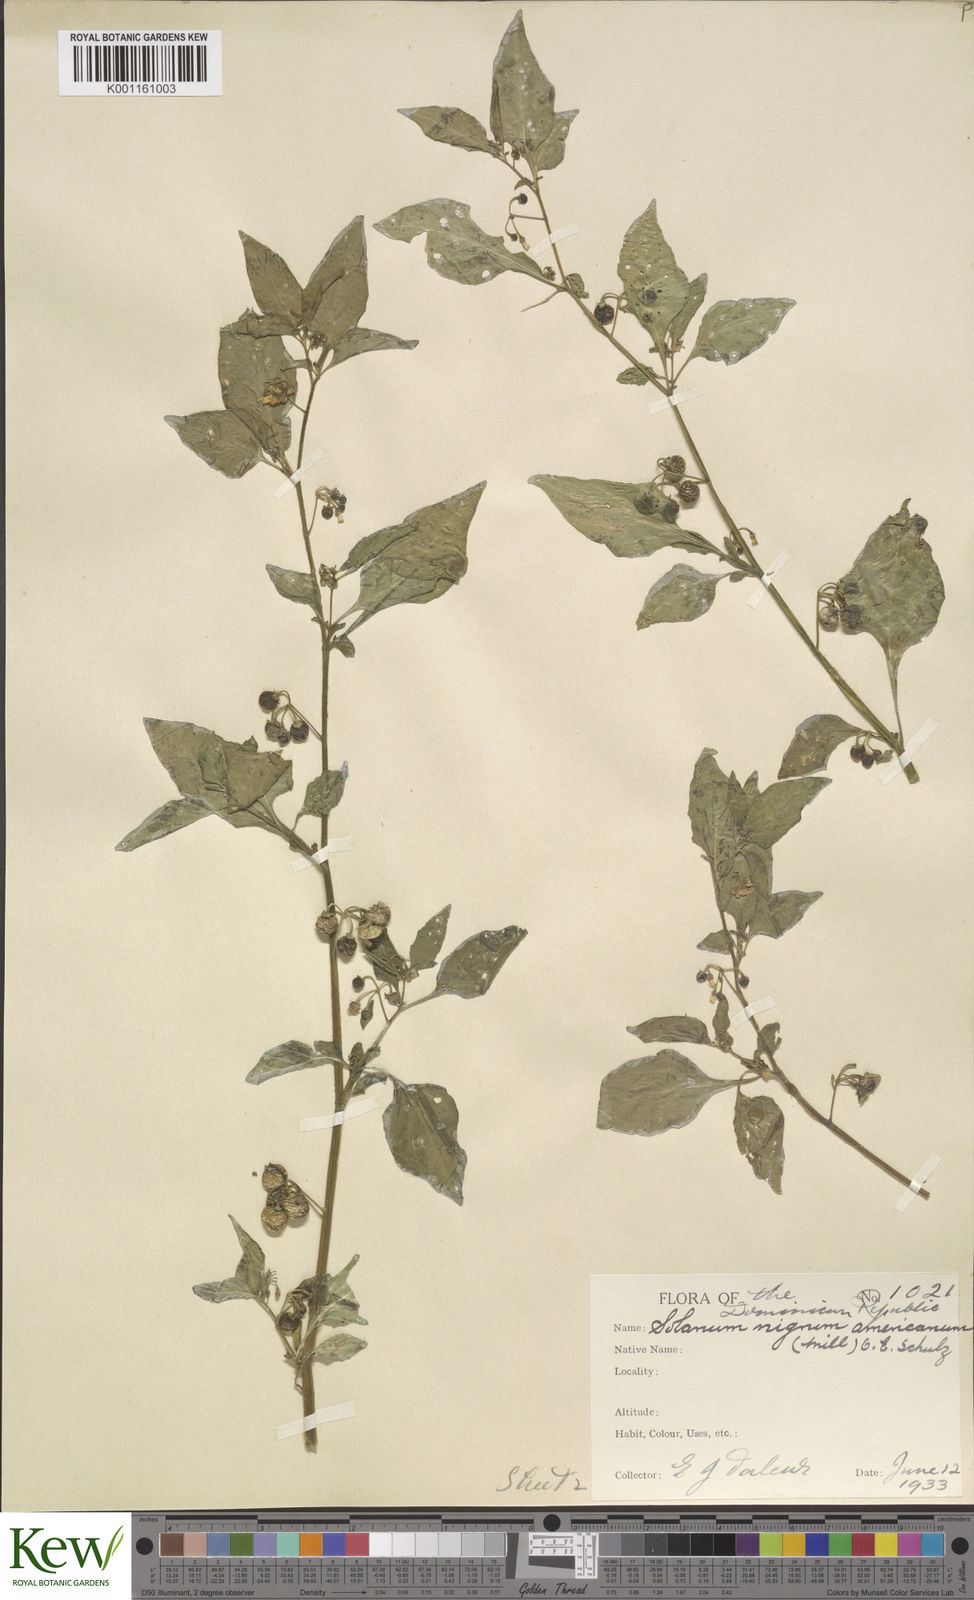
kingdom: Plantae
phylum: Tracheophyta
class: Magnoliopsida
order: Solanales
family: Solanaceae
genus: Solanum
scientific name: Solanum americanum
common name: American black nightshade
